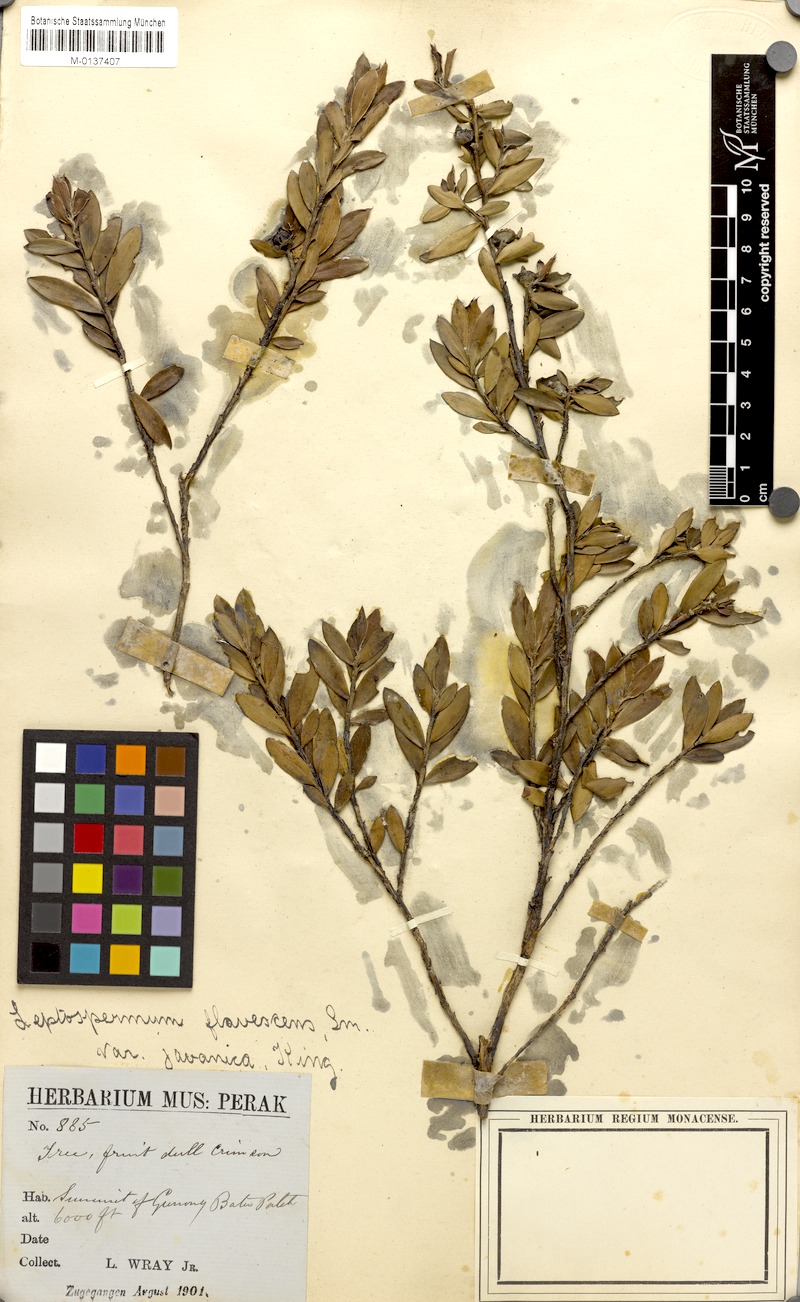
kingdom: Plantae
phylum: Tracheophyta
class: Magnoliopsida
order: Myrtales
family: Myrtaceae
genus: Leptospermum
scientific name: Leptospermum polygalifolium
